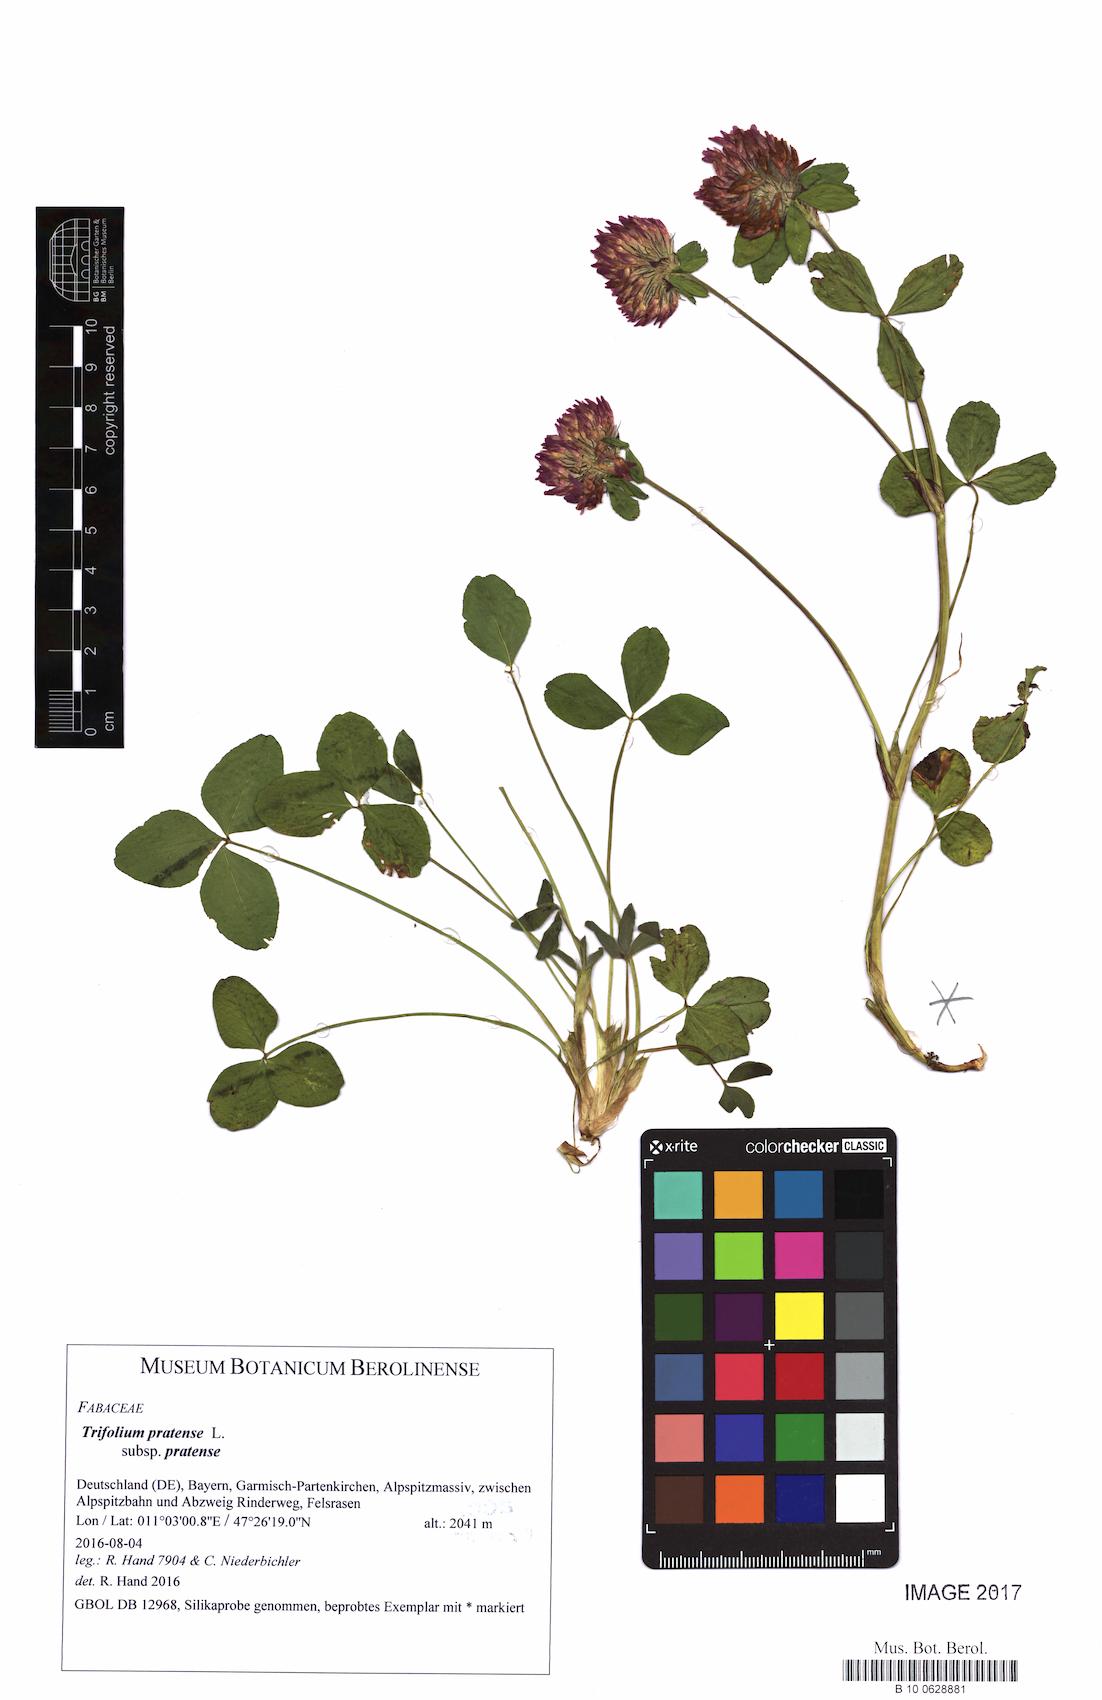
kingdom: Plantae
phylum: Tracheophyta
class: Magnoliopsida
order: Fabales
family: Fabaceae
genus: Trifolium
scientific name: Trifolium pratense
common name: Red clover
